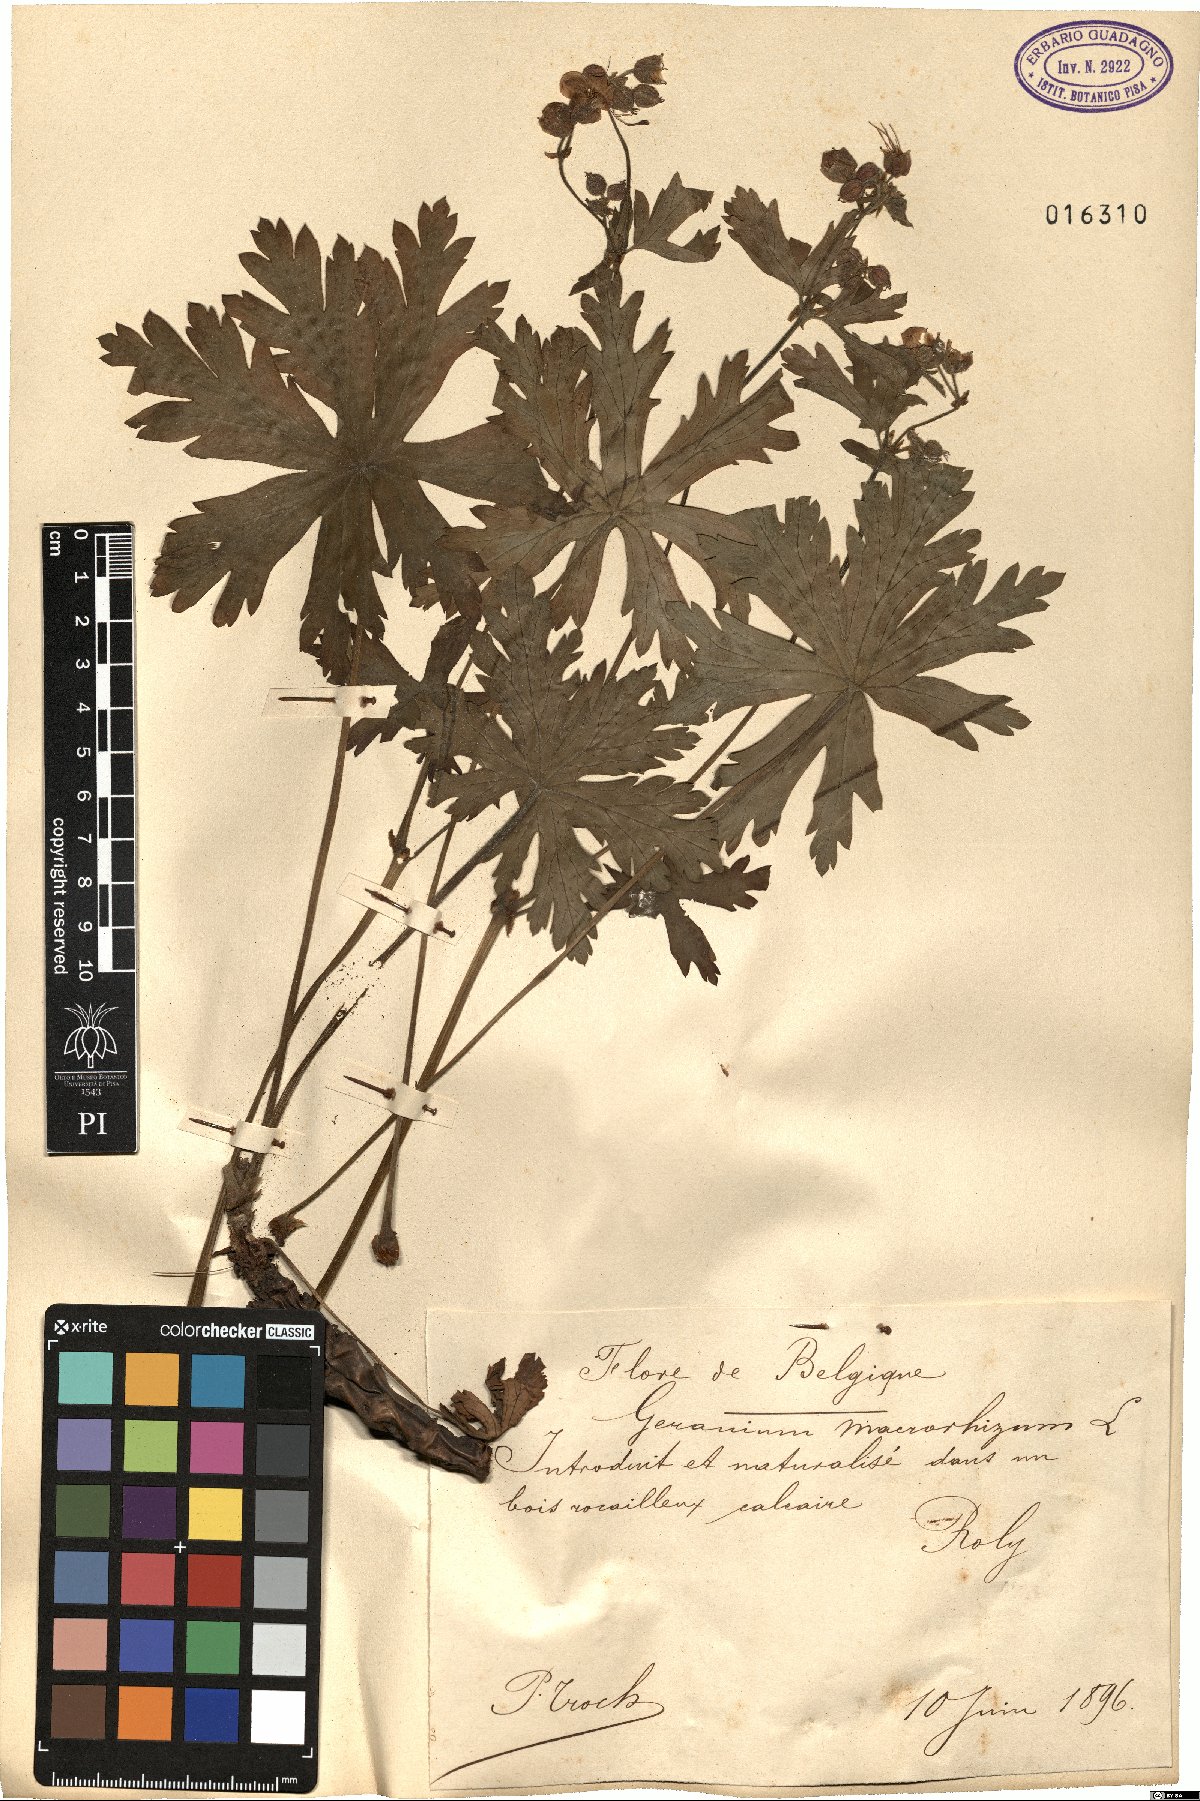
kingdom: Plantae
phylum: Tracheophyta
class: Magnoliopsida
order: Geraniales
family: Geraniaceae
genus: Geranium
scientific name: Geranium macrorrhizum
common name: Rock crane's-bill
